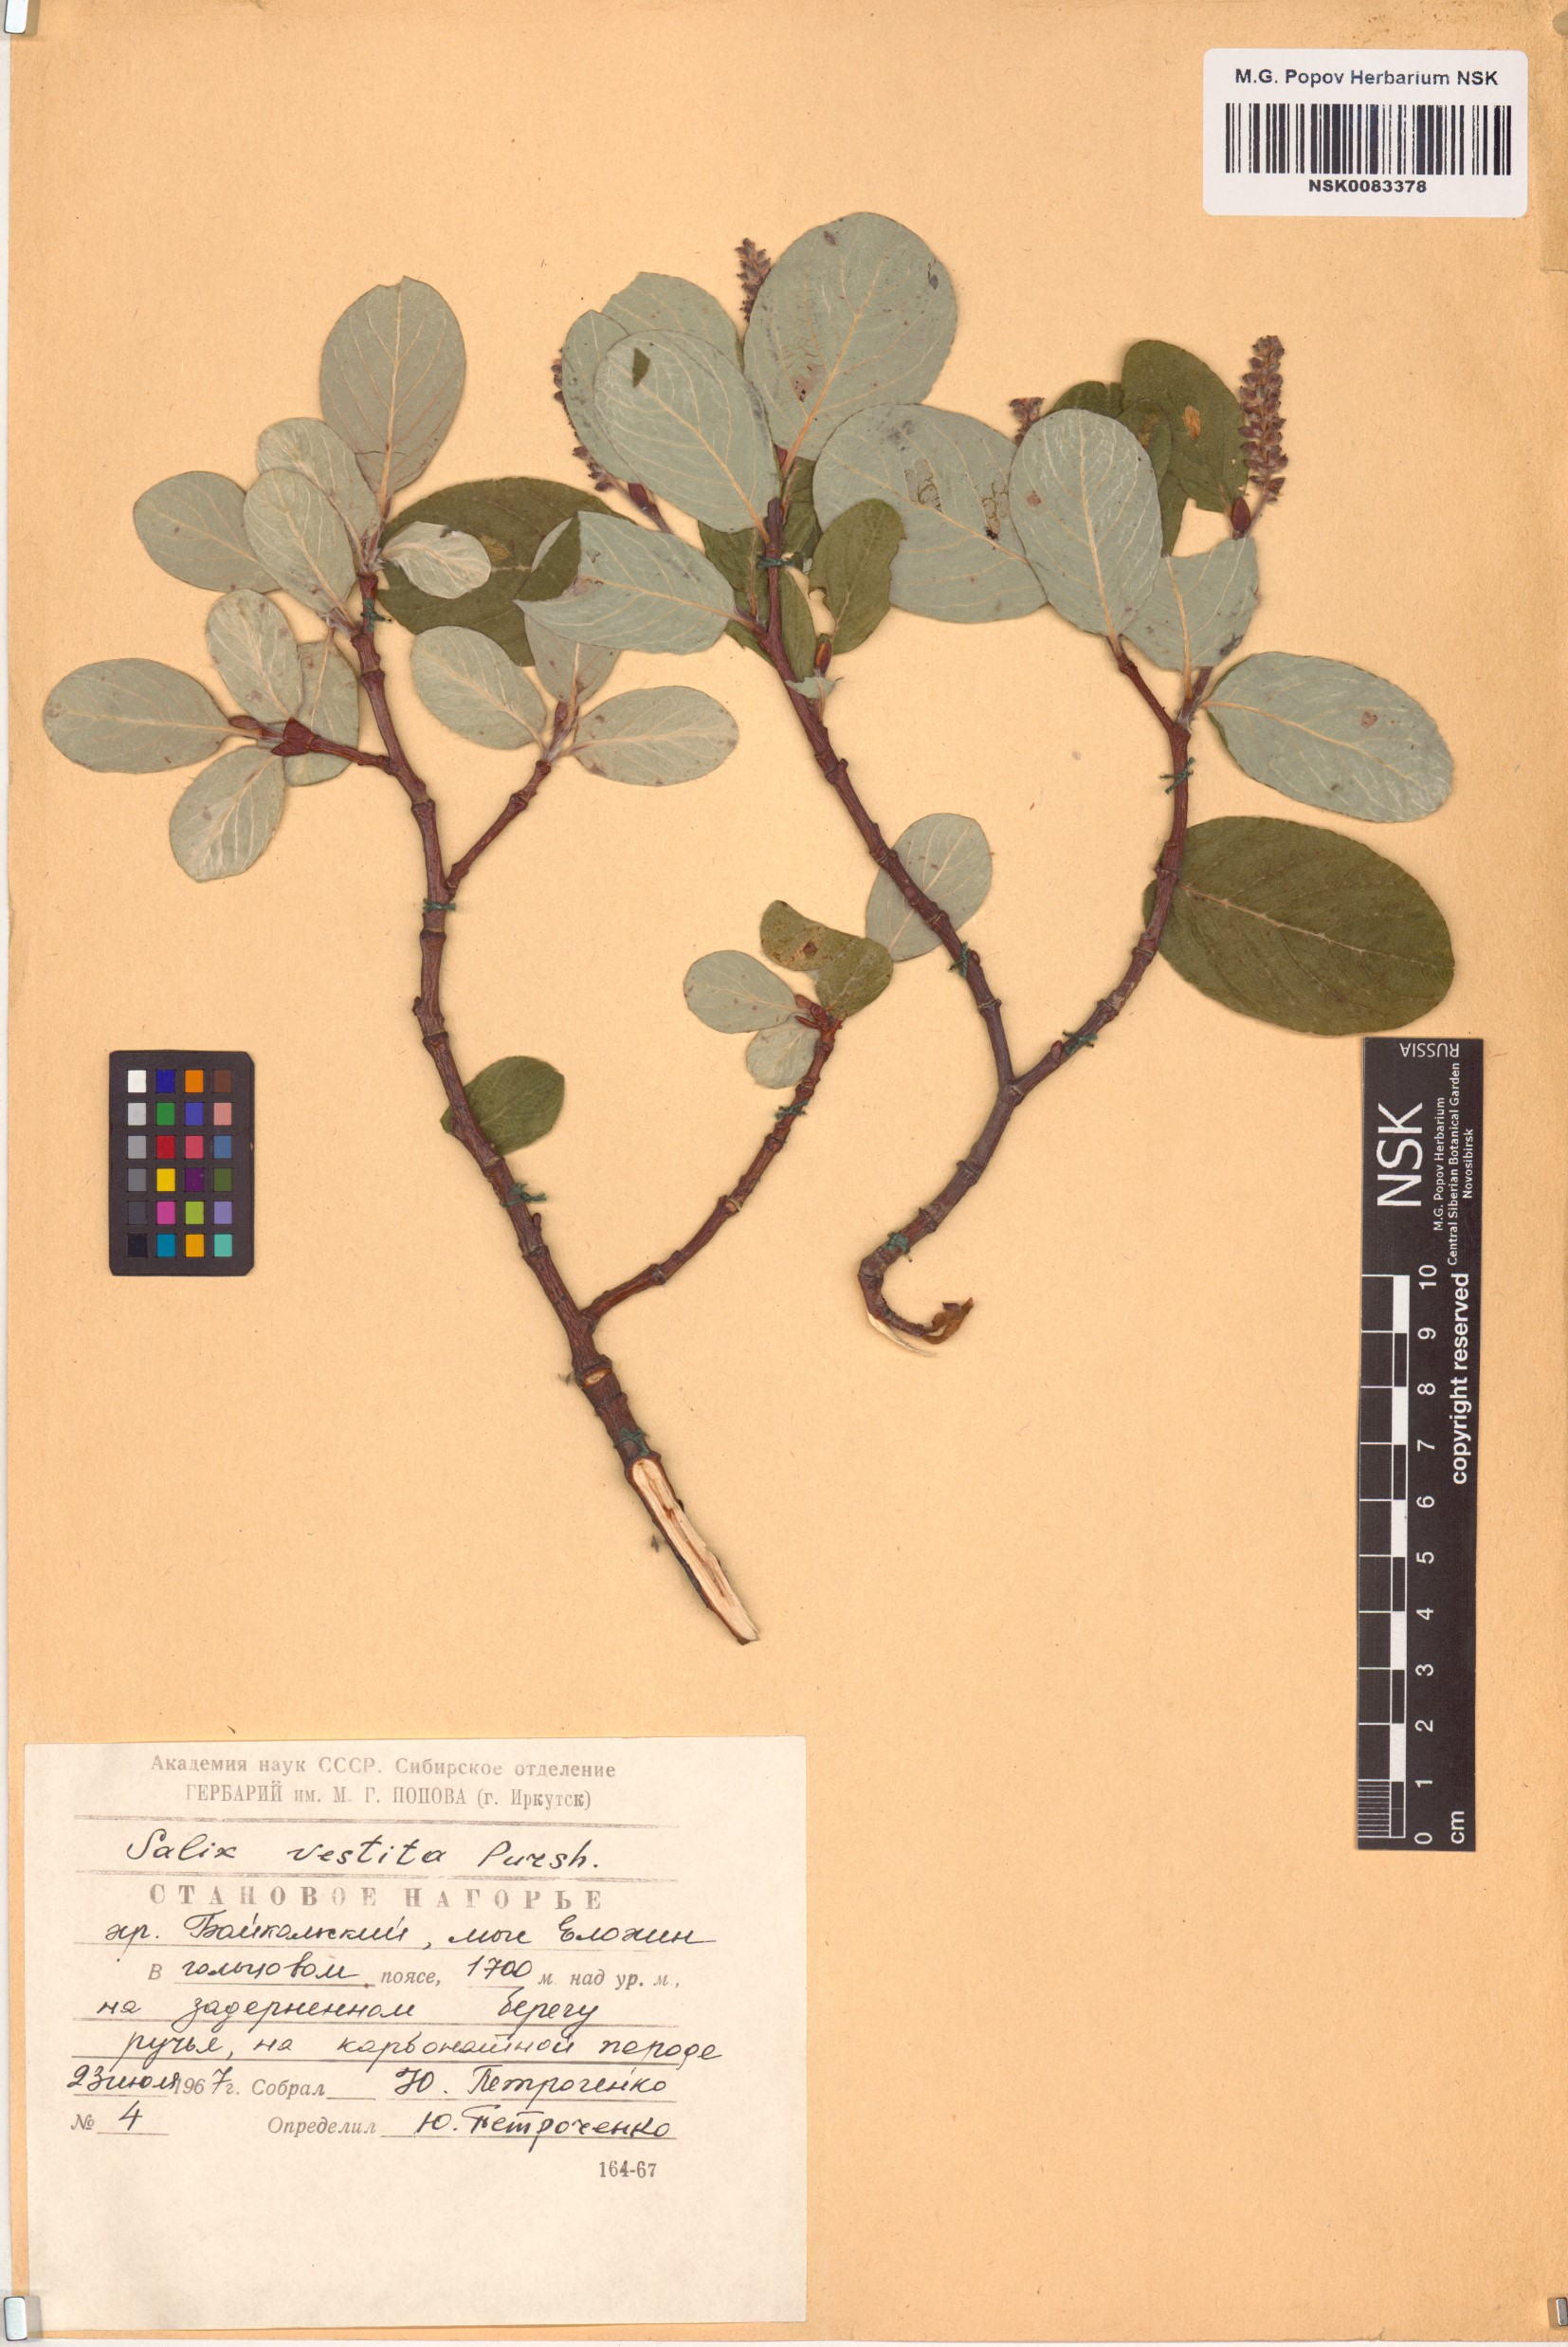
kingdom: Plantae
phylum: Tracheophyta
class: Magnoliopsida
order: Malpighiales
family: Salicaceae
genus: Salix
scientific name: Salix vestita
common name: Hairy willow
